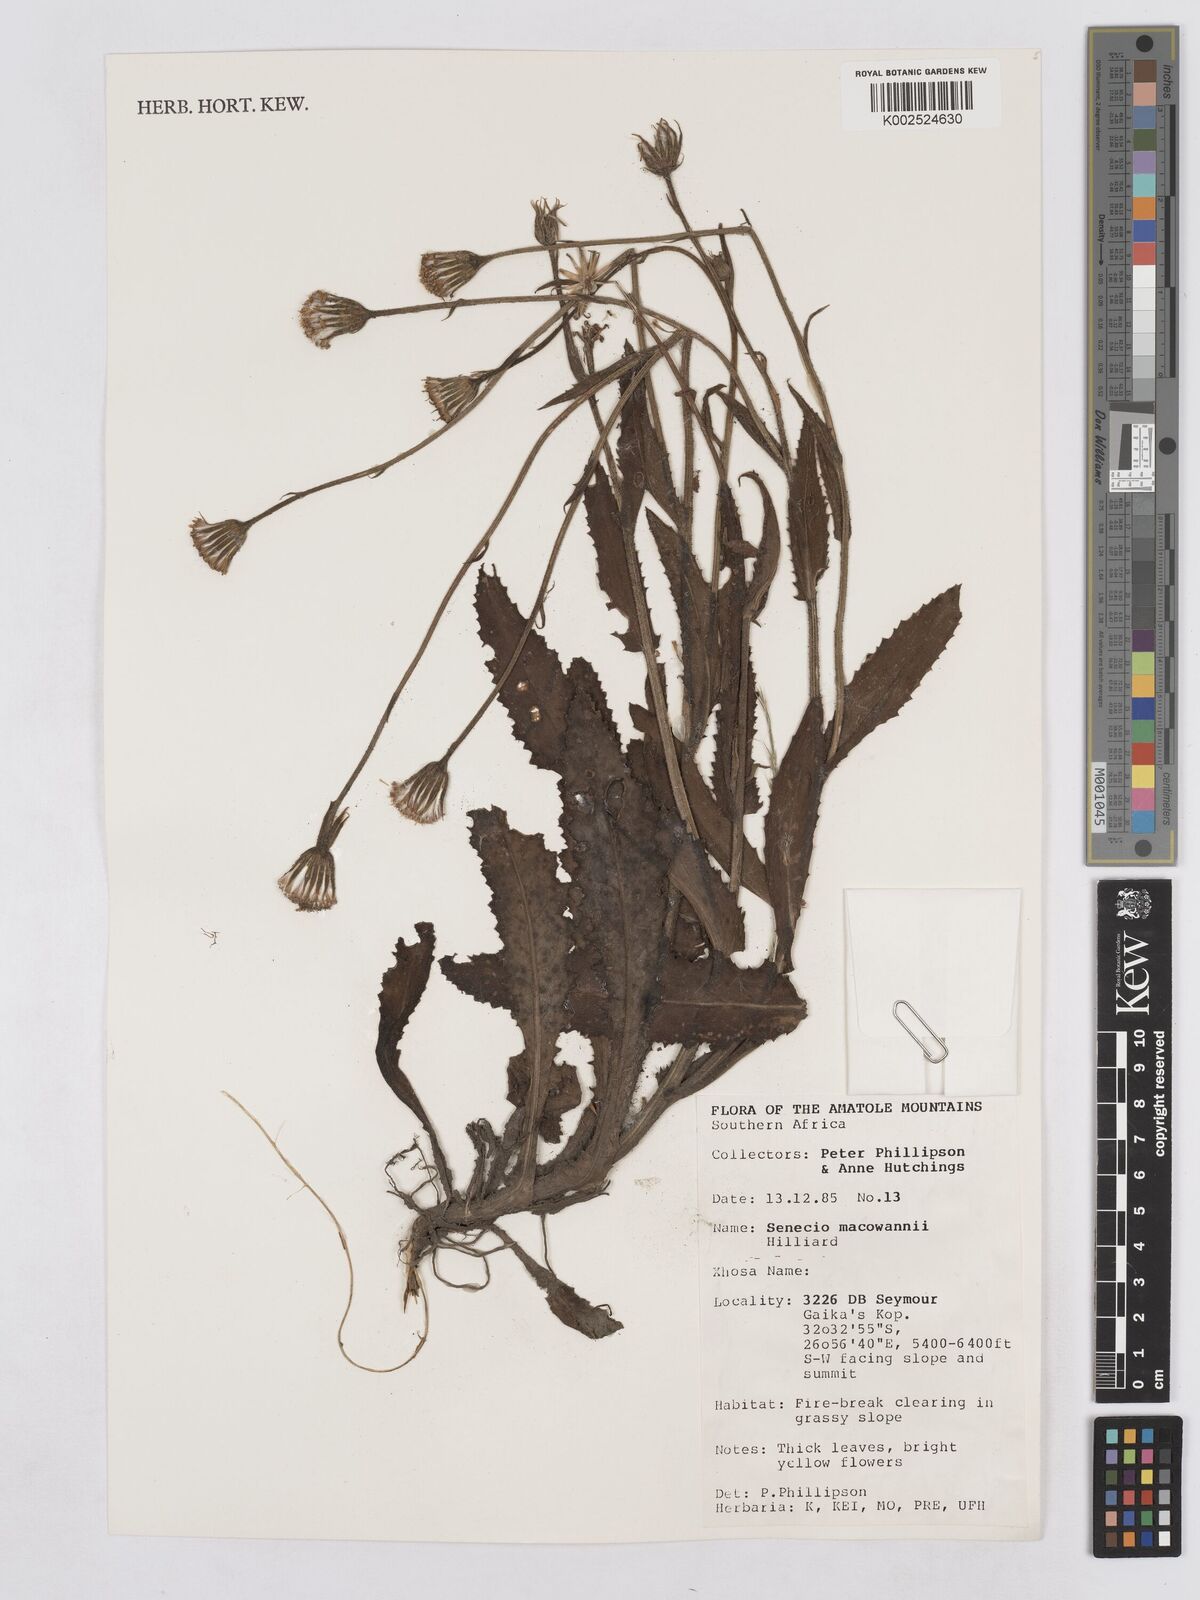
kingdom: Plantae
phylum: Tracheophyta
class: Magnoliopsida
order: Asterales
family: Asteraceae
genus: Senecio
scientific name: Senecio macowanii
